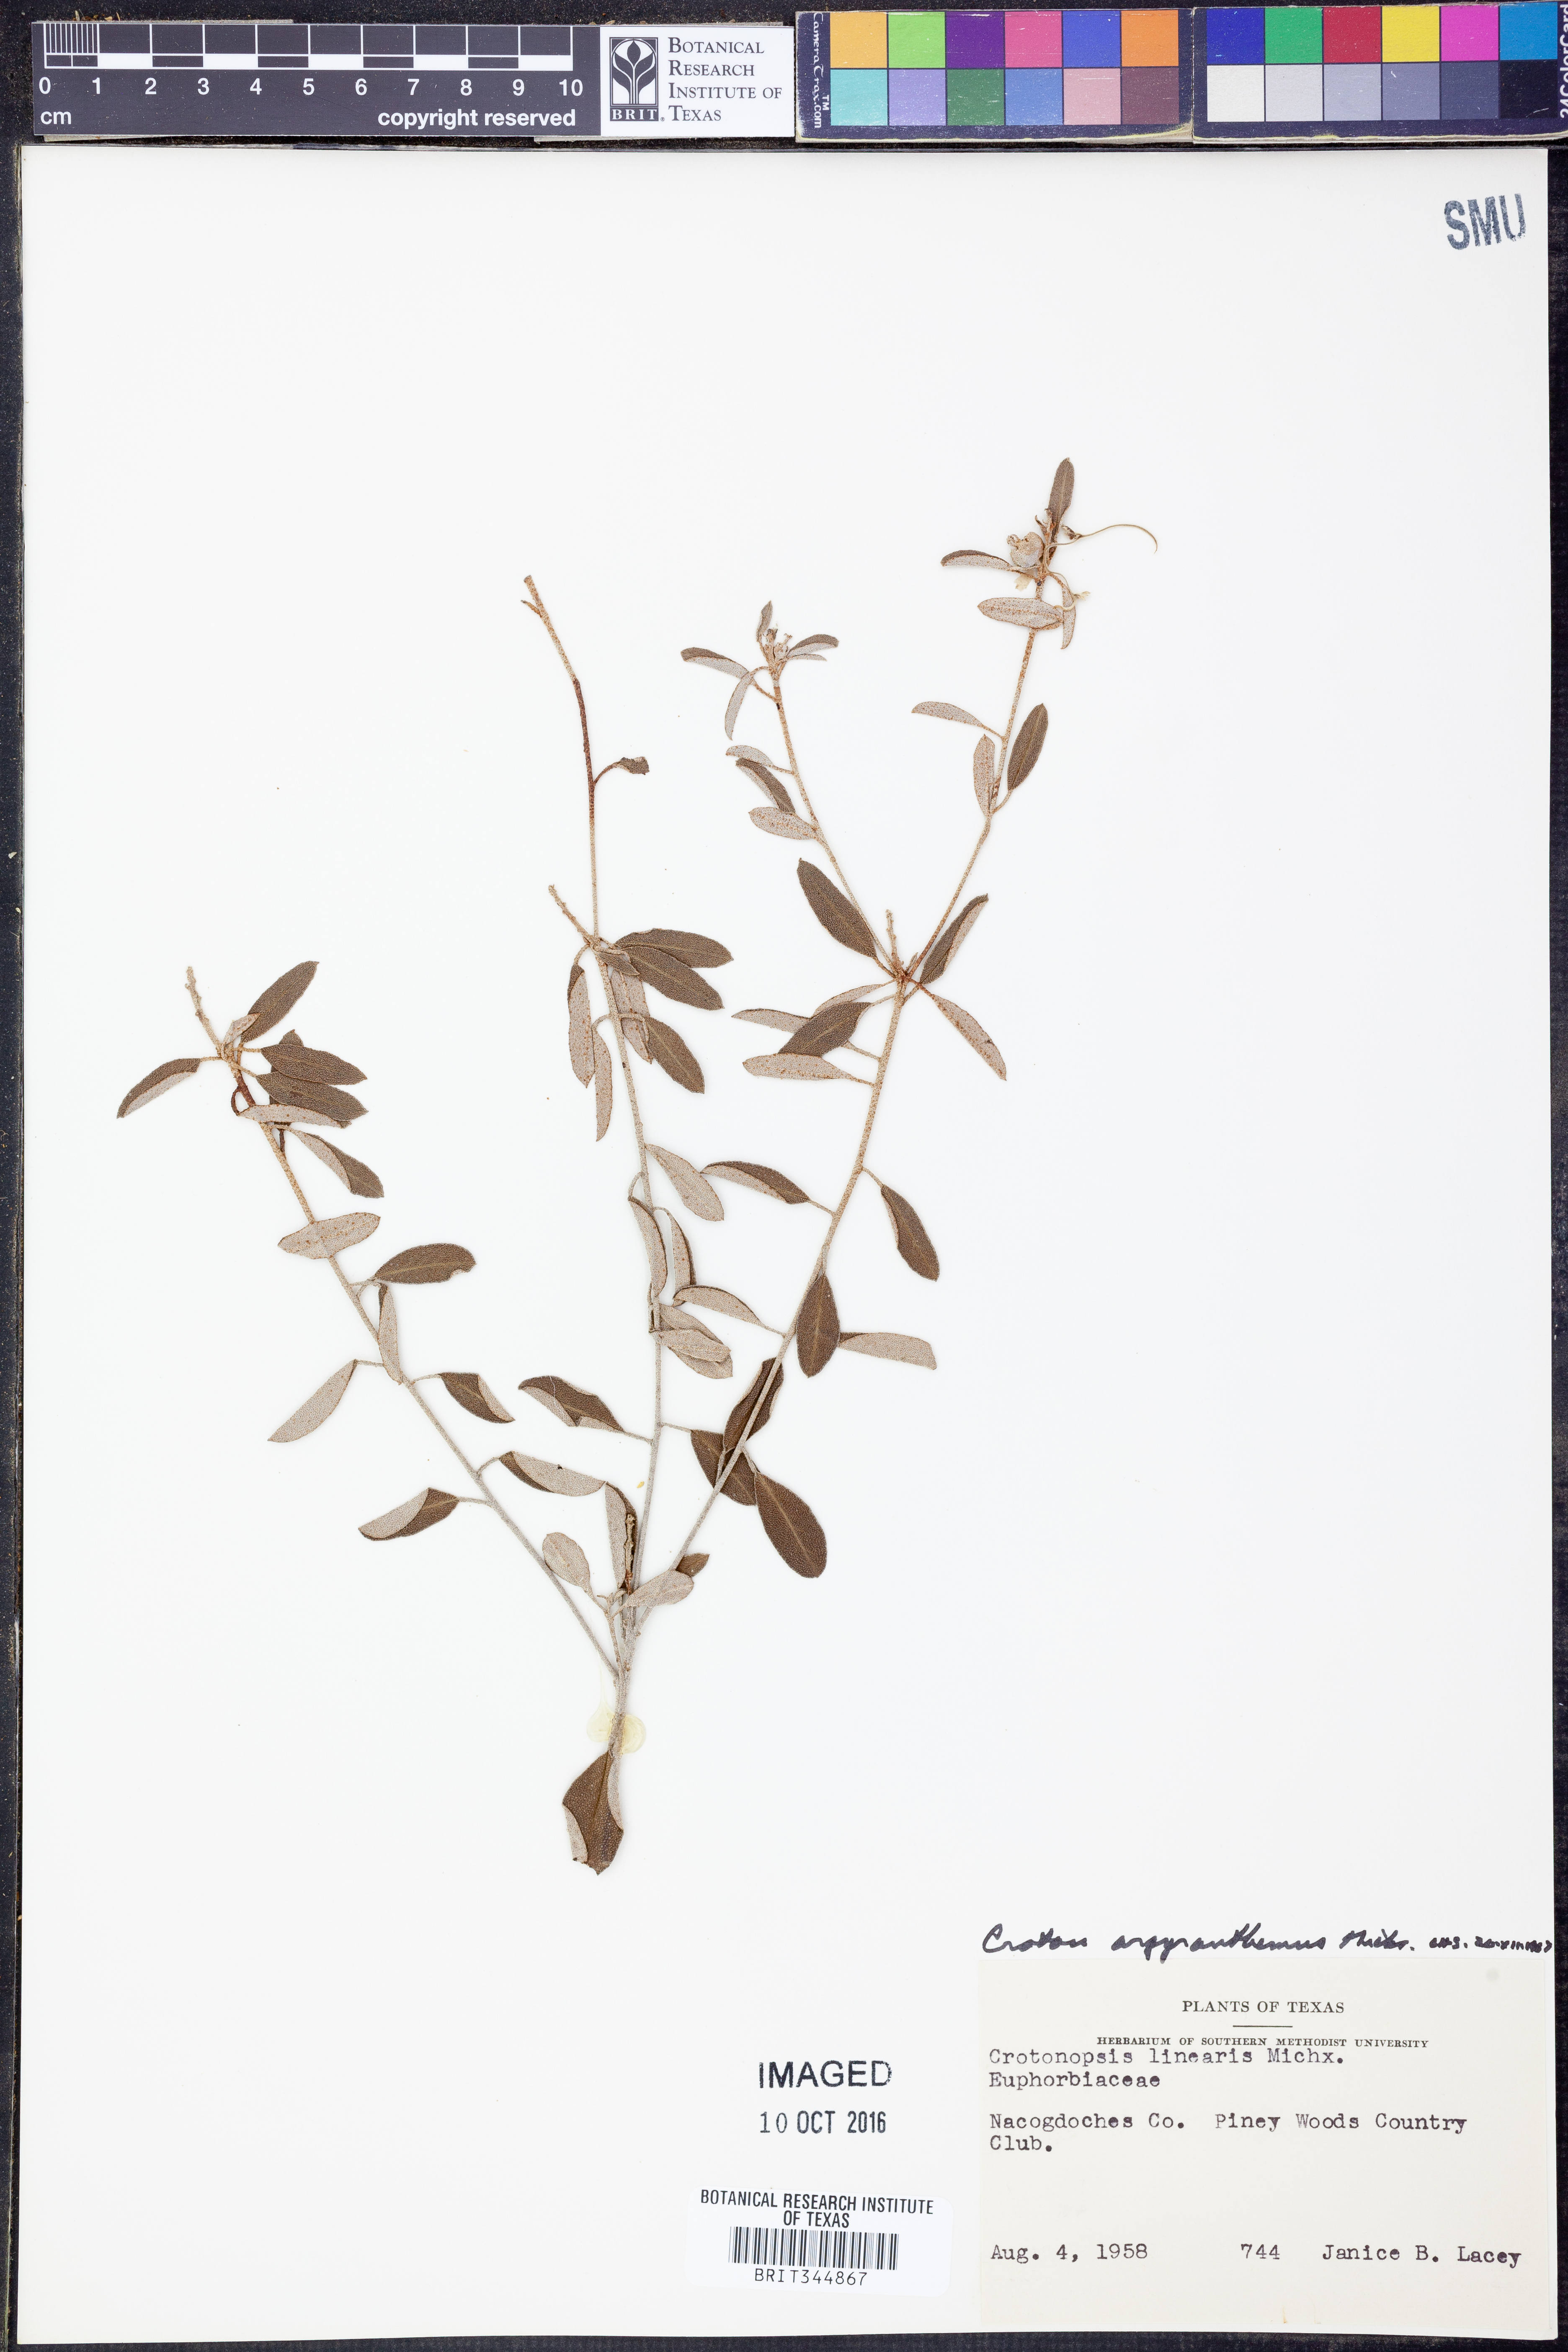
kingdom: Plantae
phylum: Tracheophyta
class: Magnoliopsida
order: Malpighiales
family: Euphorbiaceae
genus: Croton
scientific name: Croton argyranthemus
